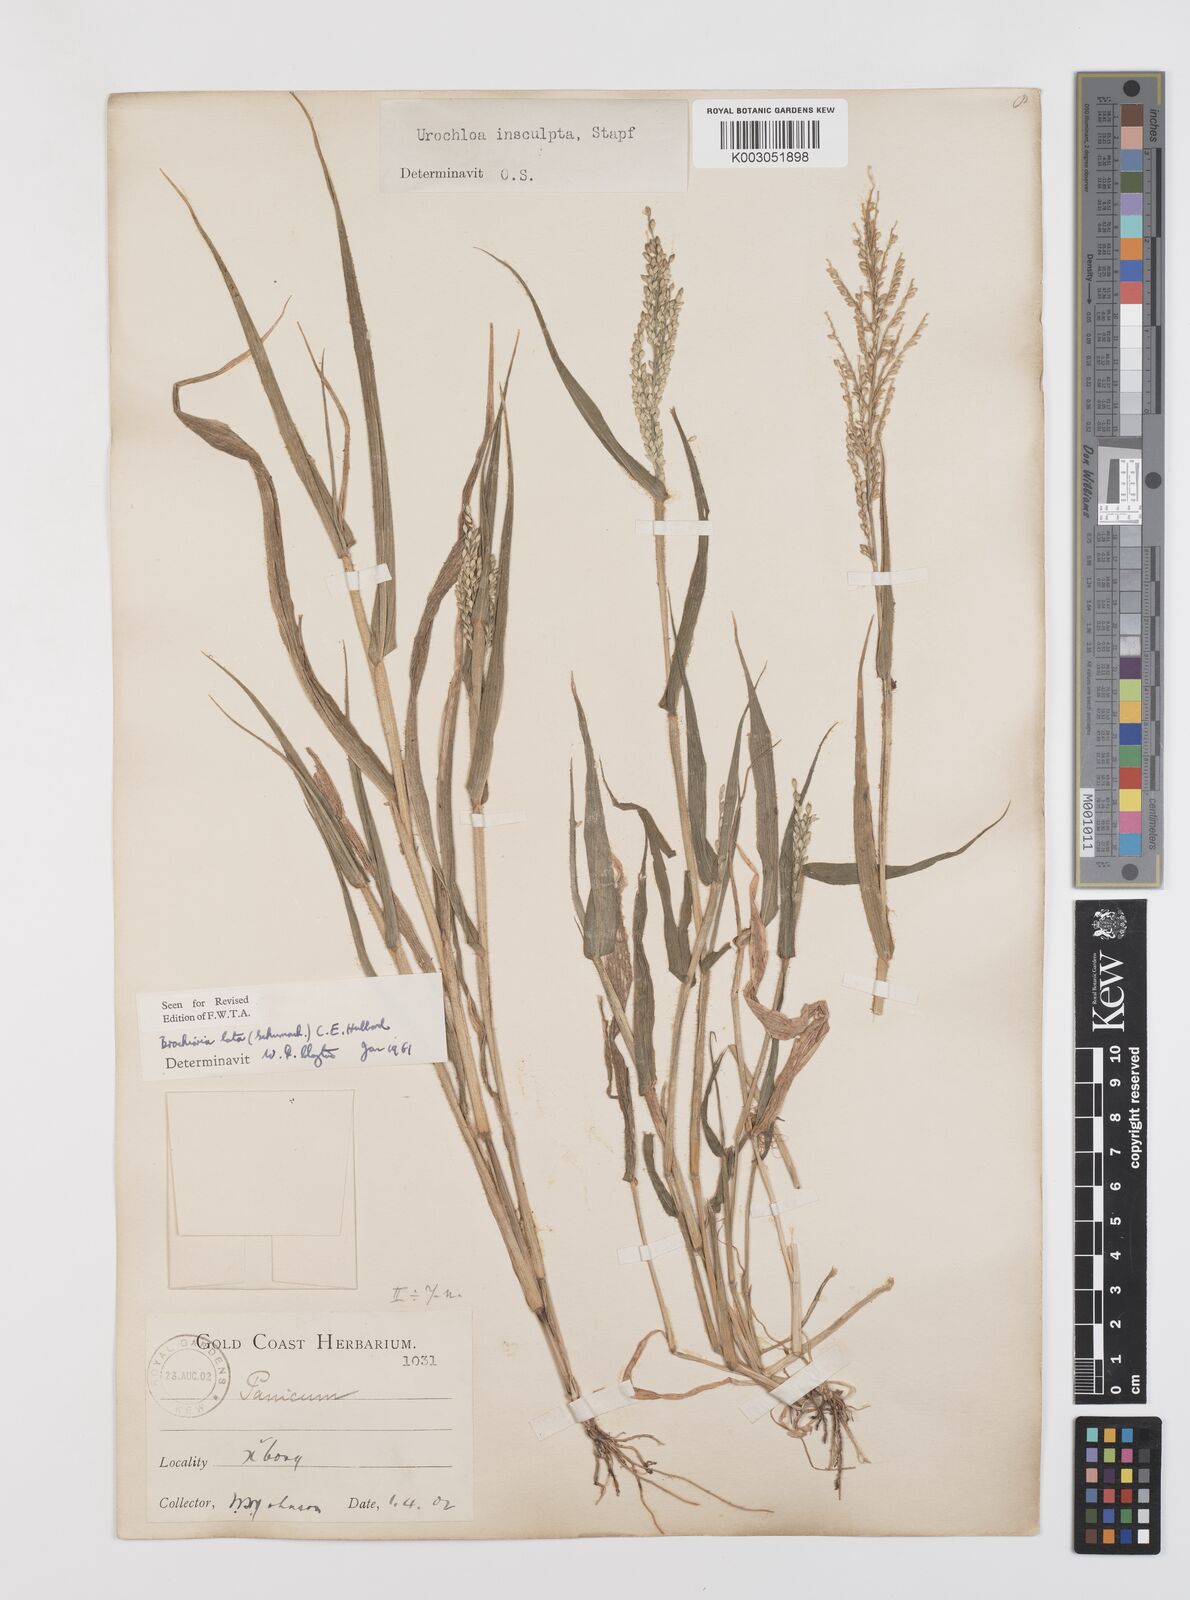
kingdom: Plantae
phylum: Tracheophyta
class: Liliopsida
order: Poales
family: Poaceae
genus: Urochloa
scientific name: Urochloa lata
